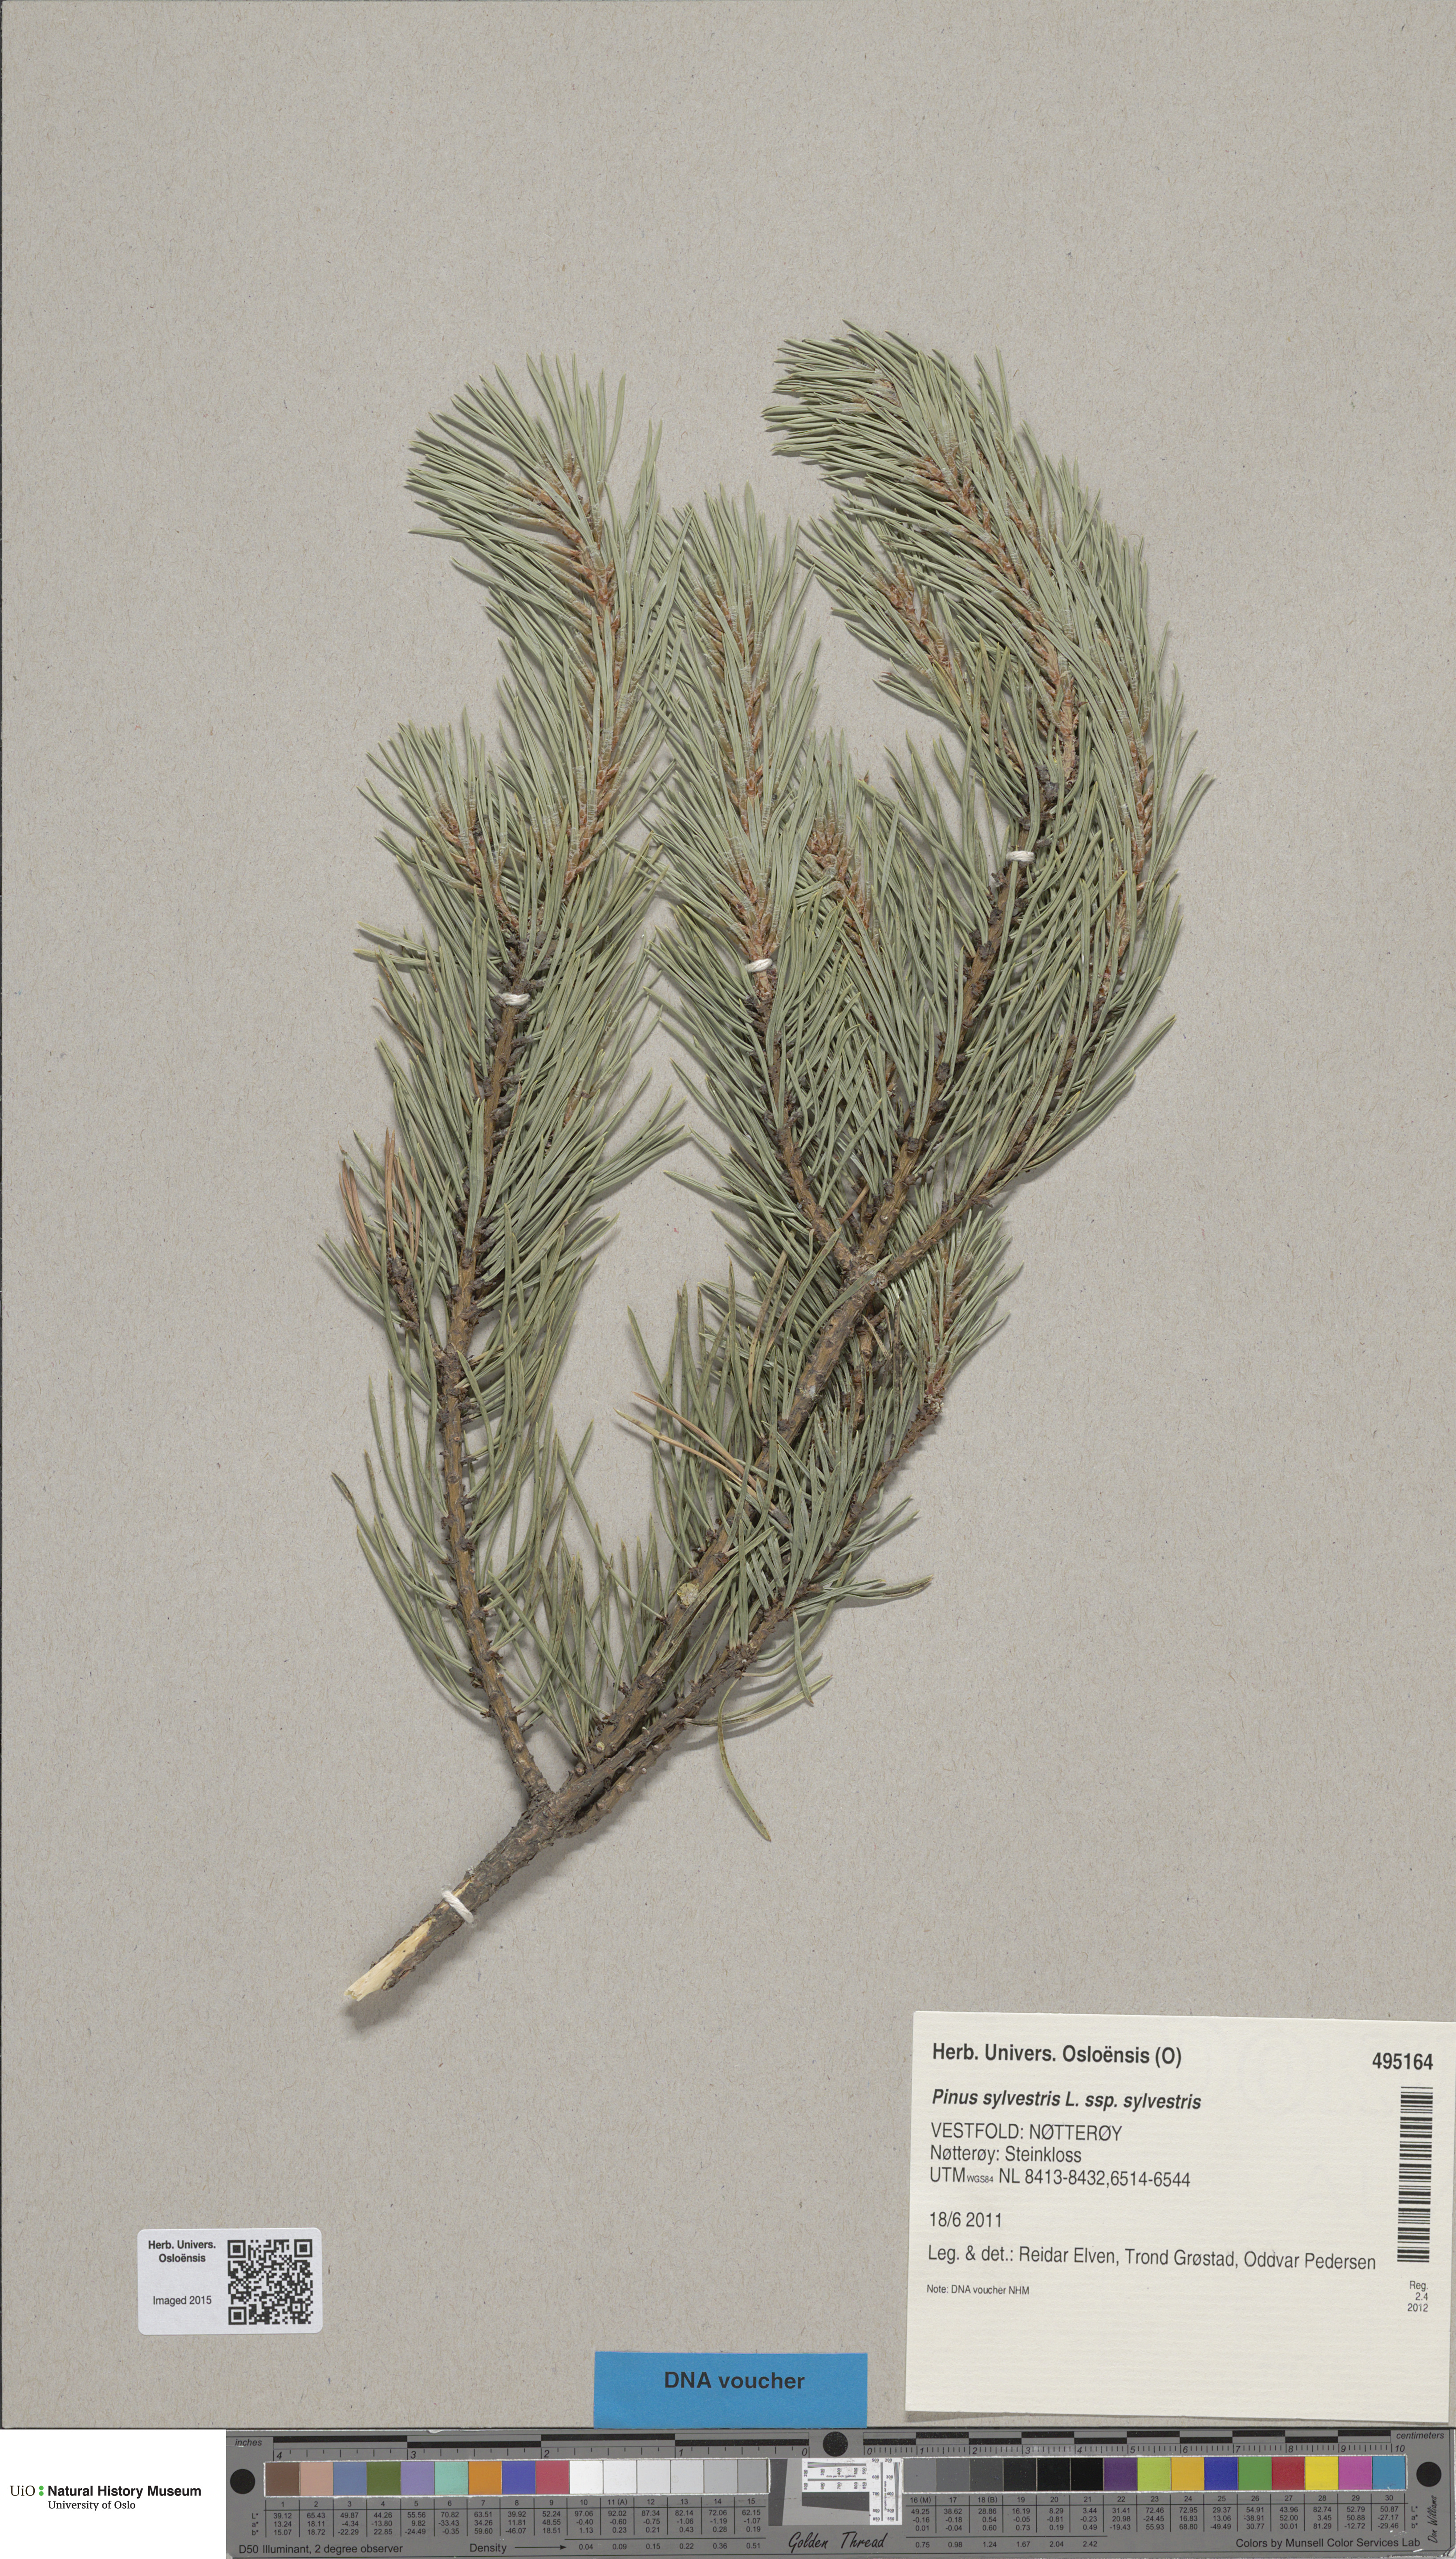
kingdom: Plantae
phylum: Tracheophyta
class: Pinopsida
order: Pinales
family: Pinaceae
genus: Pinus
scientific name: Pinus sylvestris
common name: Scots pine
